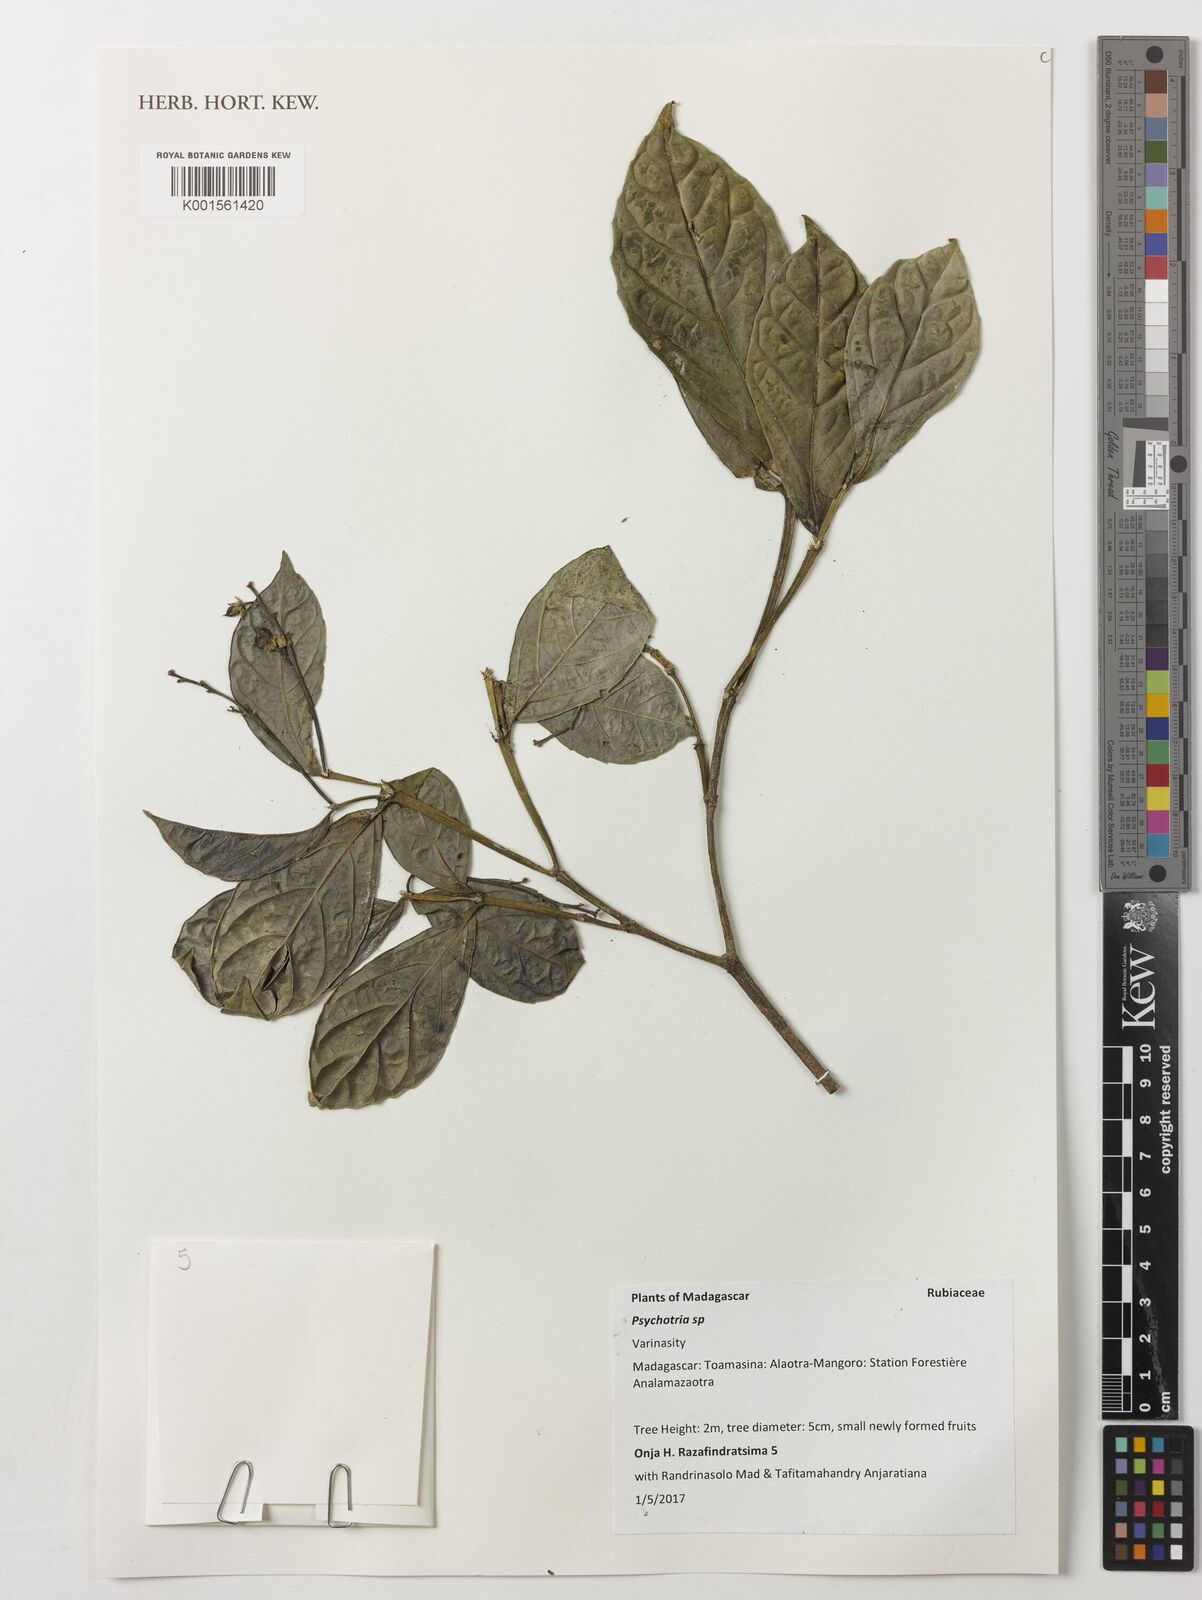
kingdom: Plantae
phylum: Tracheophyta
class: Magnoliopsida
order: Gentianales
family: Rubiaceae
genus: Psychotria
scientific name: Psychotria
